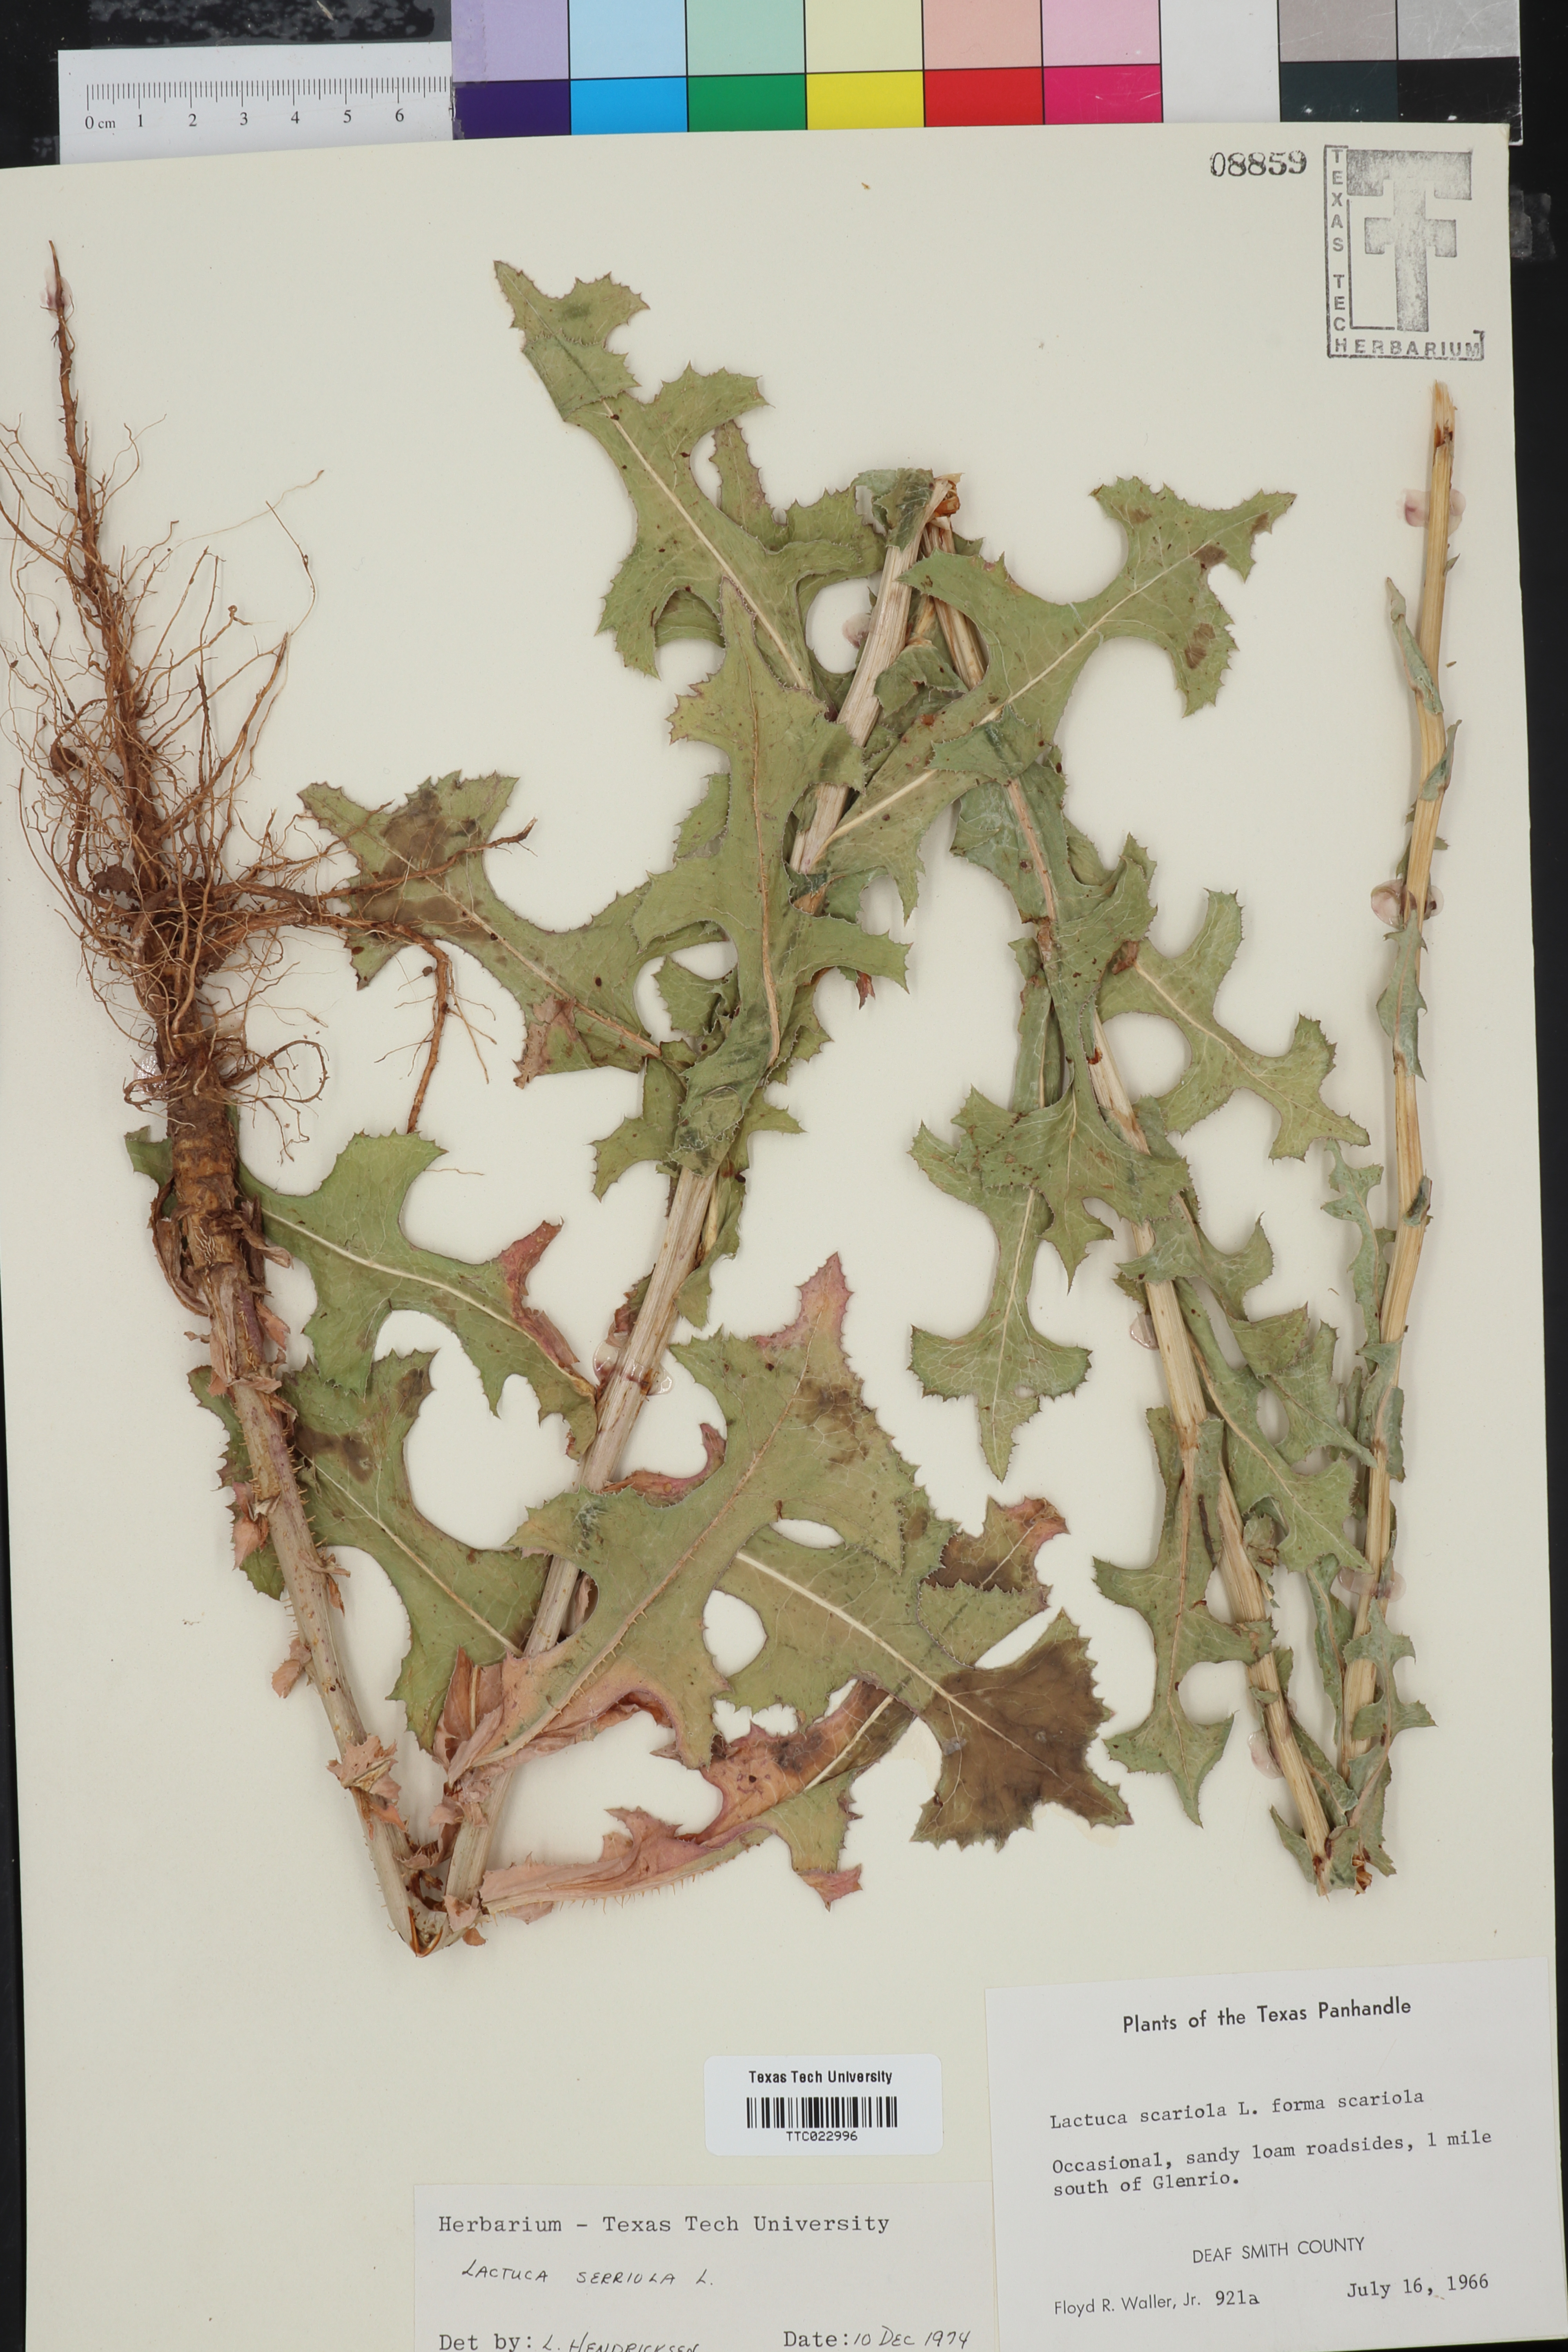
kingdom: Plantae
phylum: Tracheophyta
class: Magnoliopsida
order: Asterales
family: Asteraceae
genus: Lactuca
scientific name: Lactuca serriola
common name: Prickly lettuce
